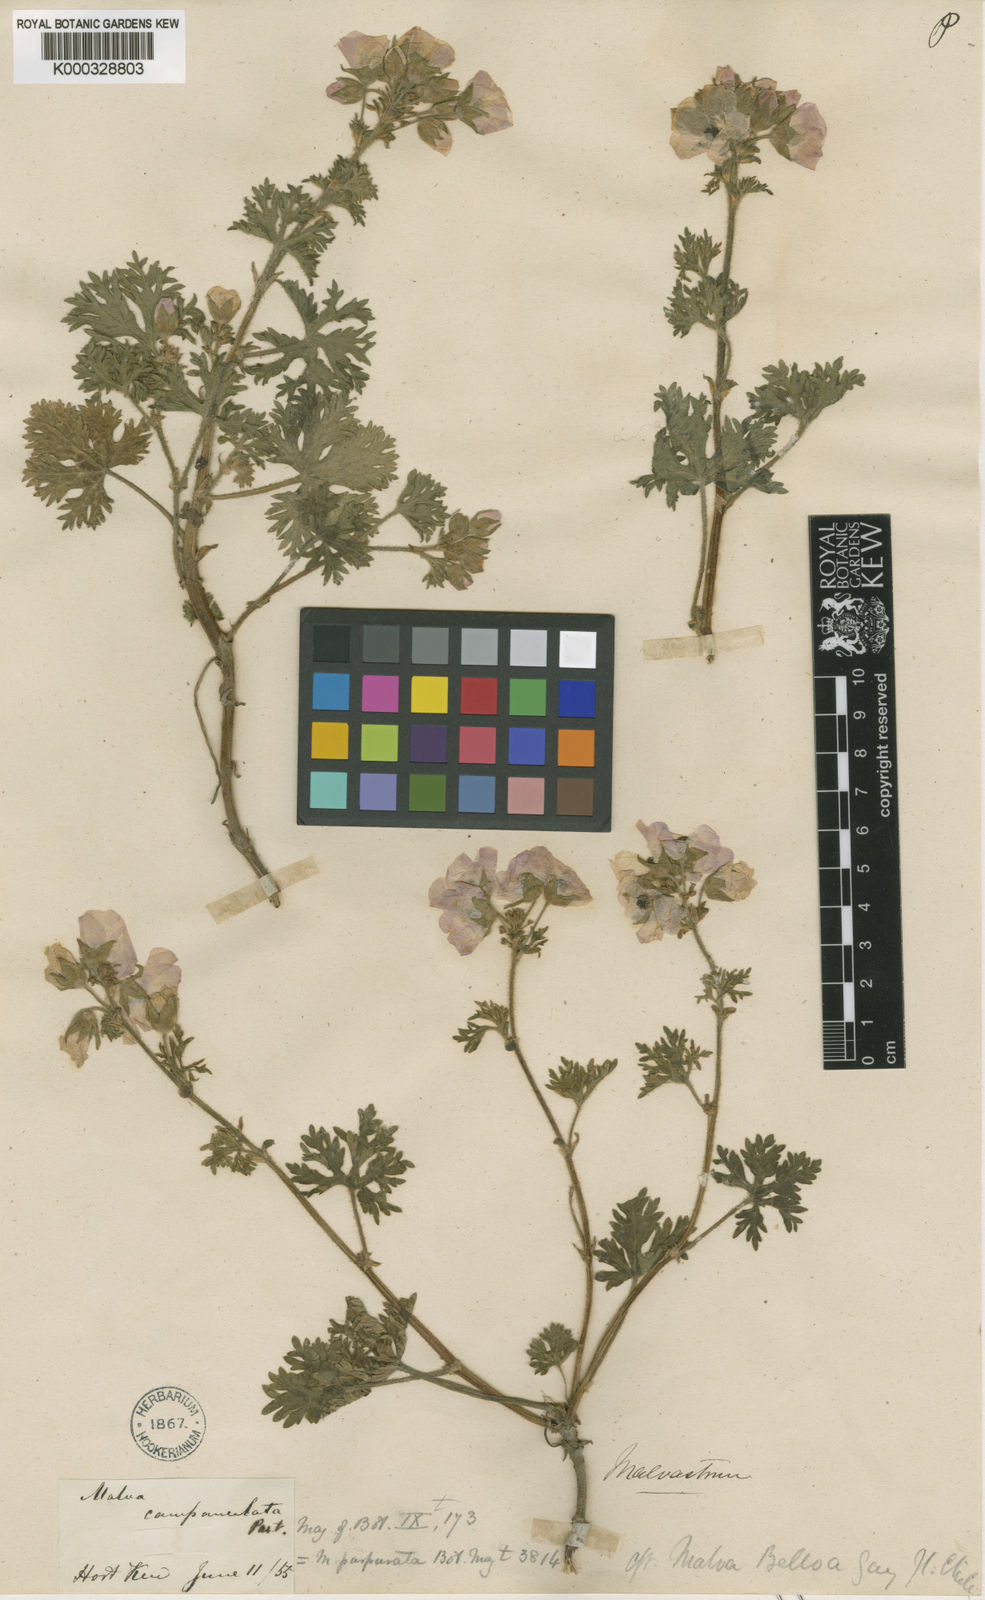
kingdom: Plantae
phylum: Tracheophyta
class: Magnoliopsida
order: Malvales
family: Malvaceae
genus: Sphaeralcea
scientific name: Sphaeralcea purpurata
